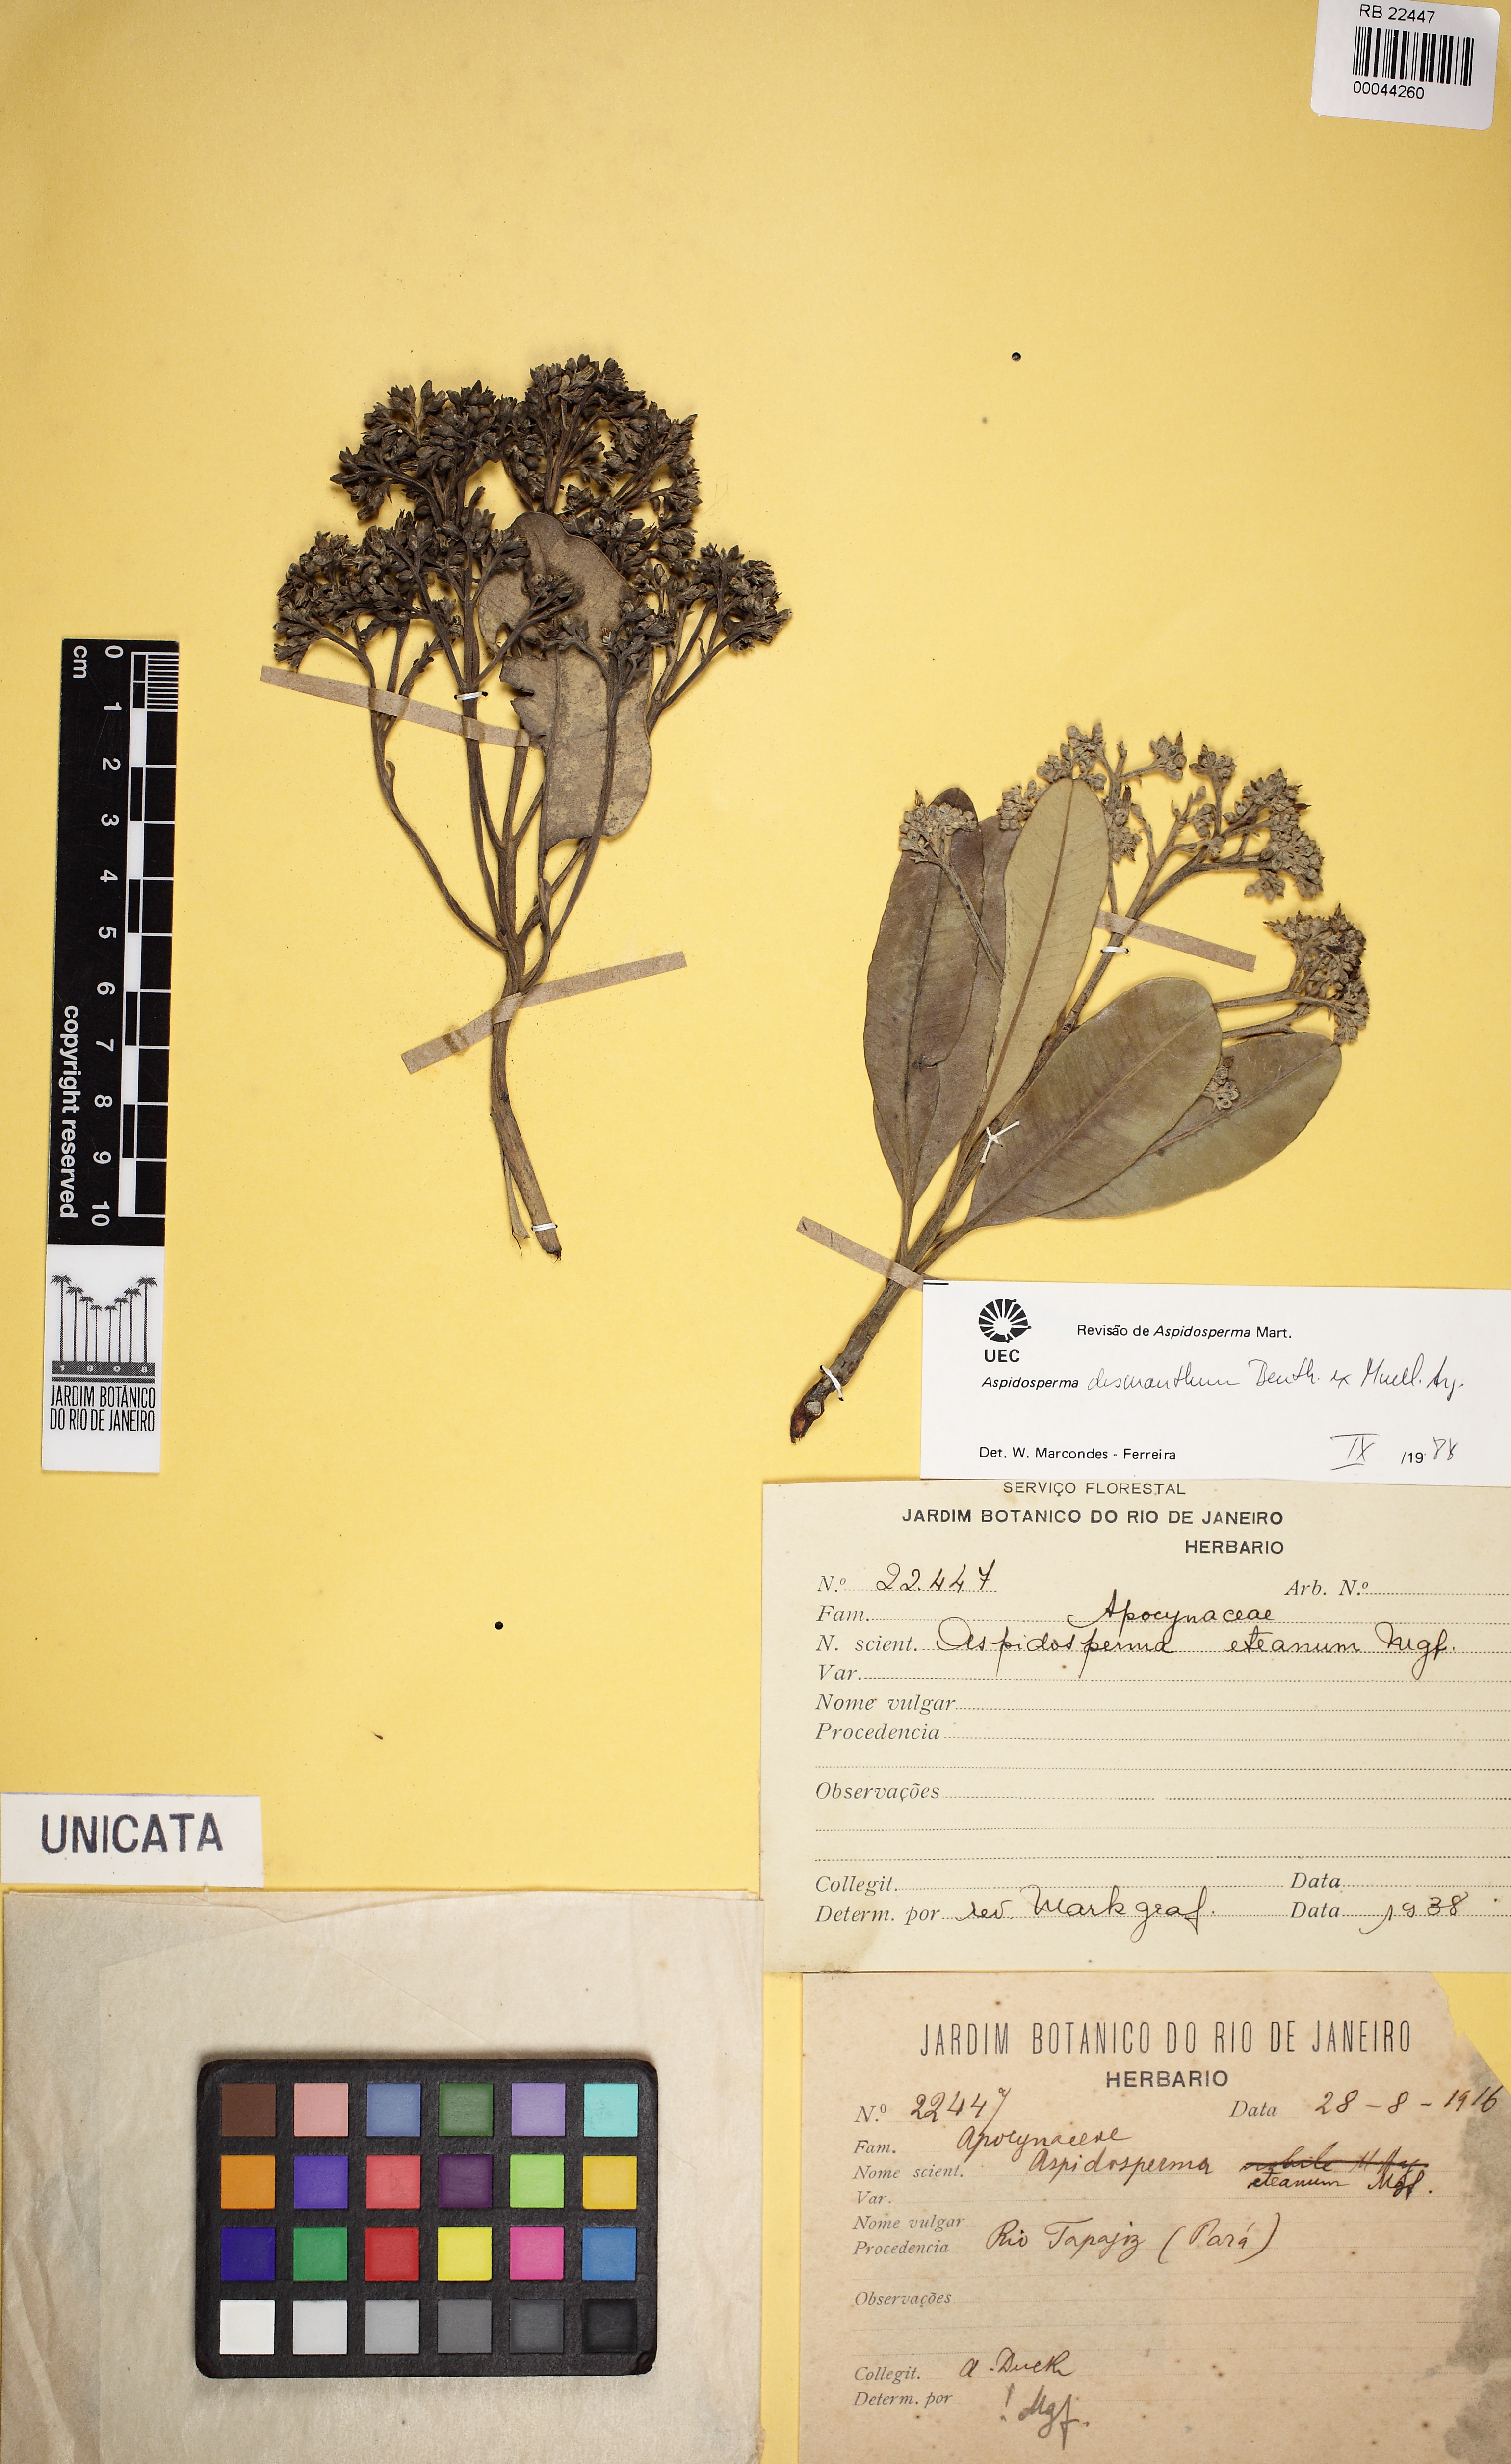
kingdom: Plantae
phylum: Tracheophyta
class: Magnoliopsida
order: Gentianales
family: Apocynaceae
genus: Aspidosperma
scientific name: Aspidosperma desmanthum
